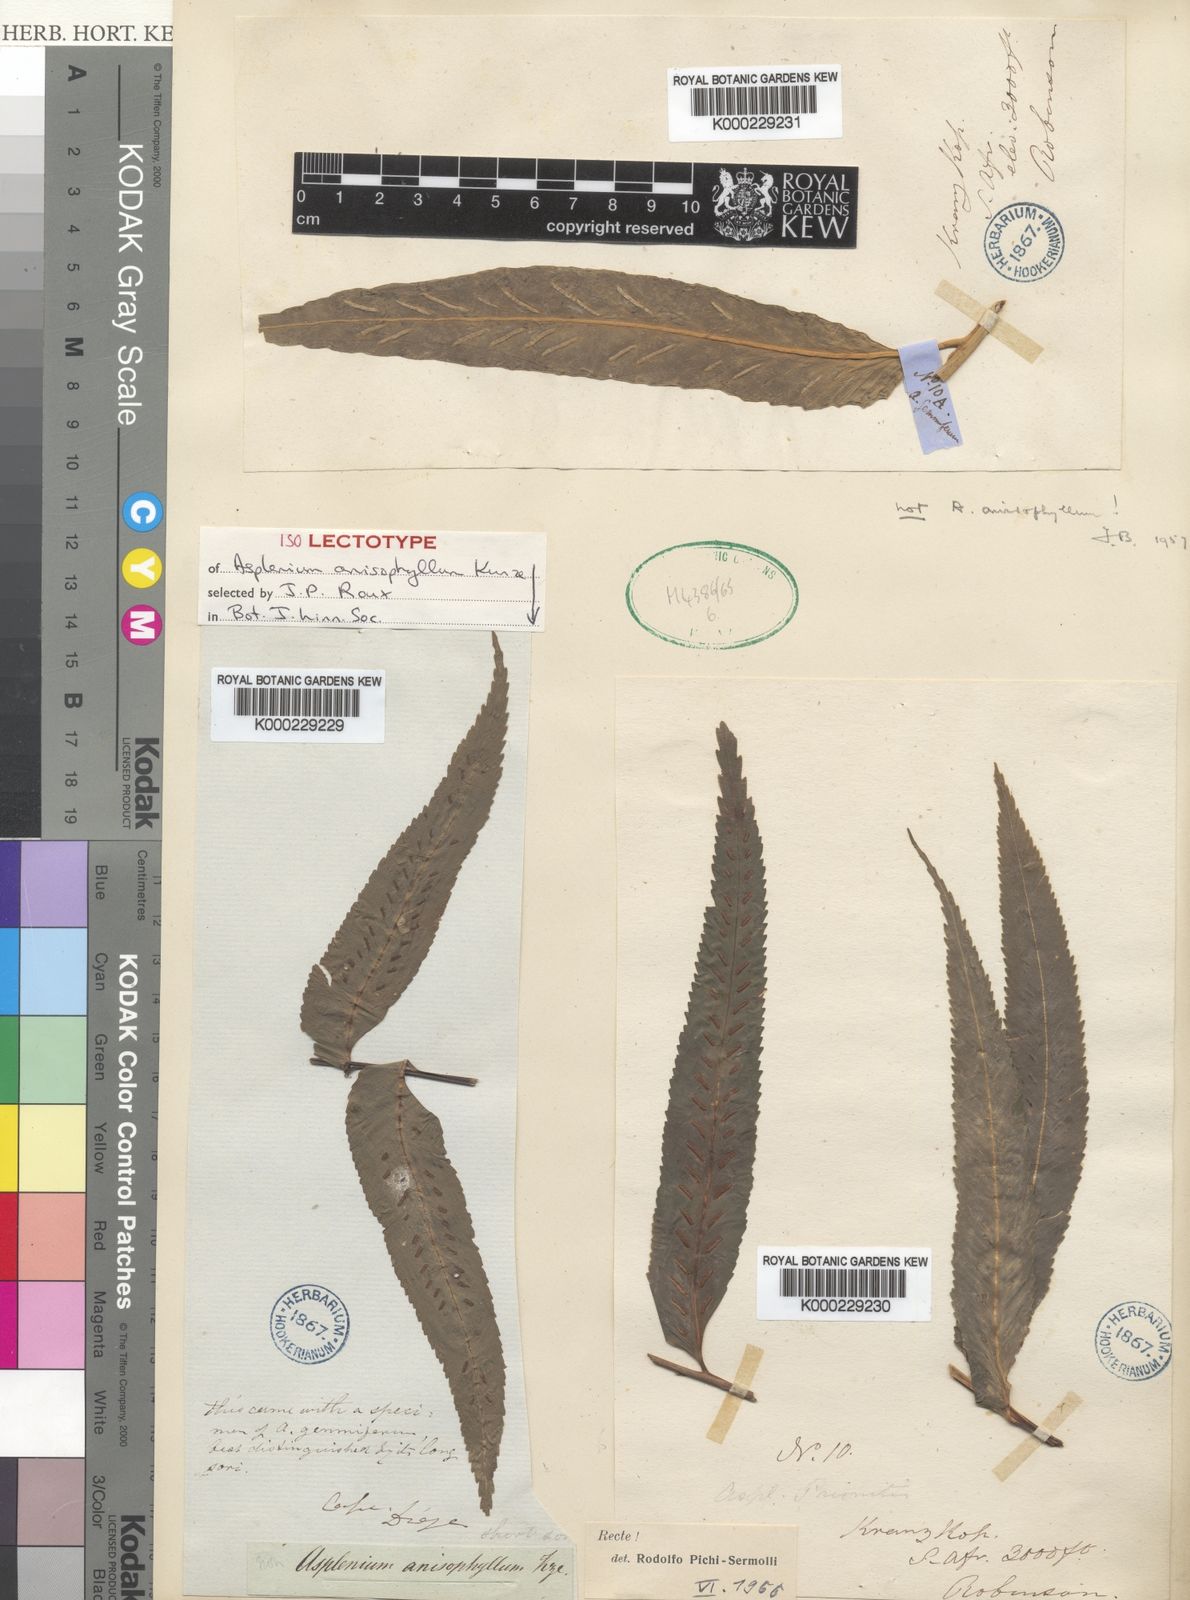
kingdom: Plantae
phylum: Tracheophyta
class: Polypodiopsida
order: Polypodiales
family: Aspleniaceae
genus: Asplenium
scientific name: Asplenium boltonii
